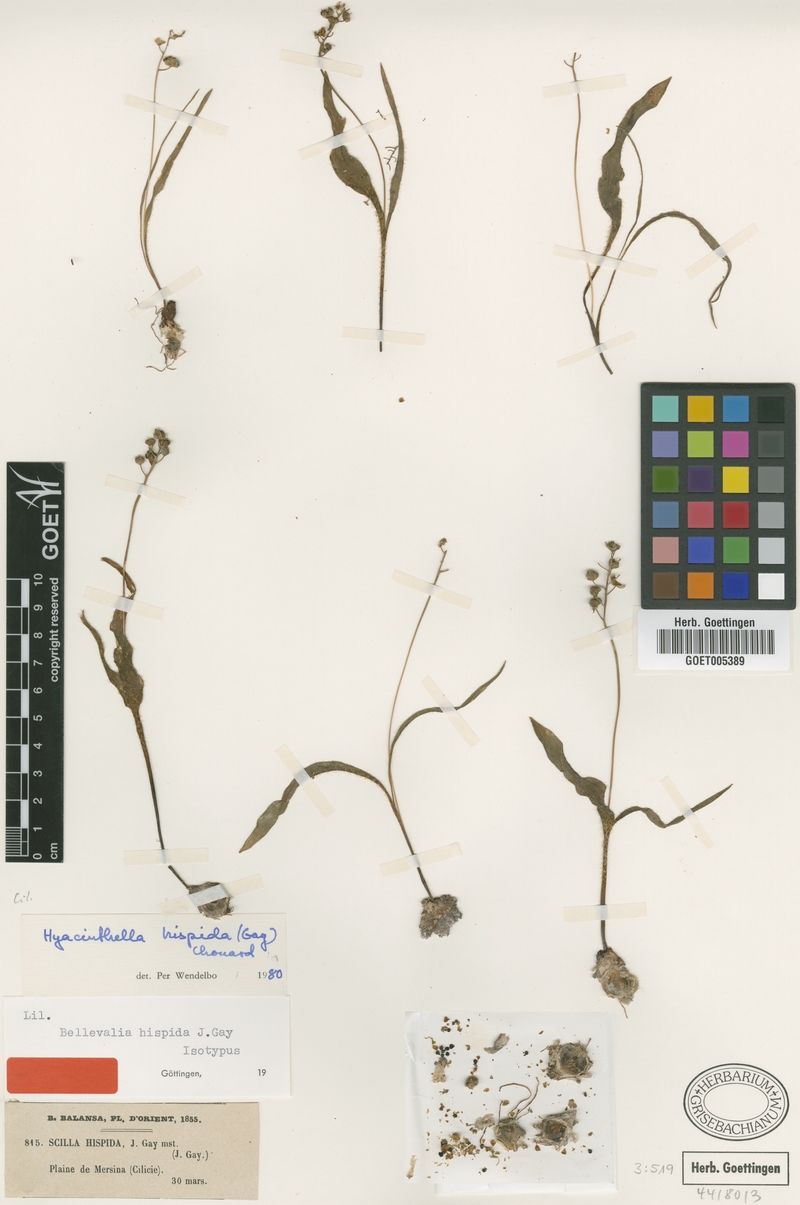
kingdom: Plantae
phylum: Tracheophyta
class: Liliopsida
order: Asparagales
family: Asparagaceae
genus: Hyacinthella
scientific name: Hyacinthella hispida
